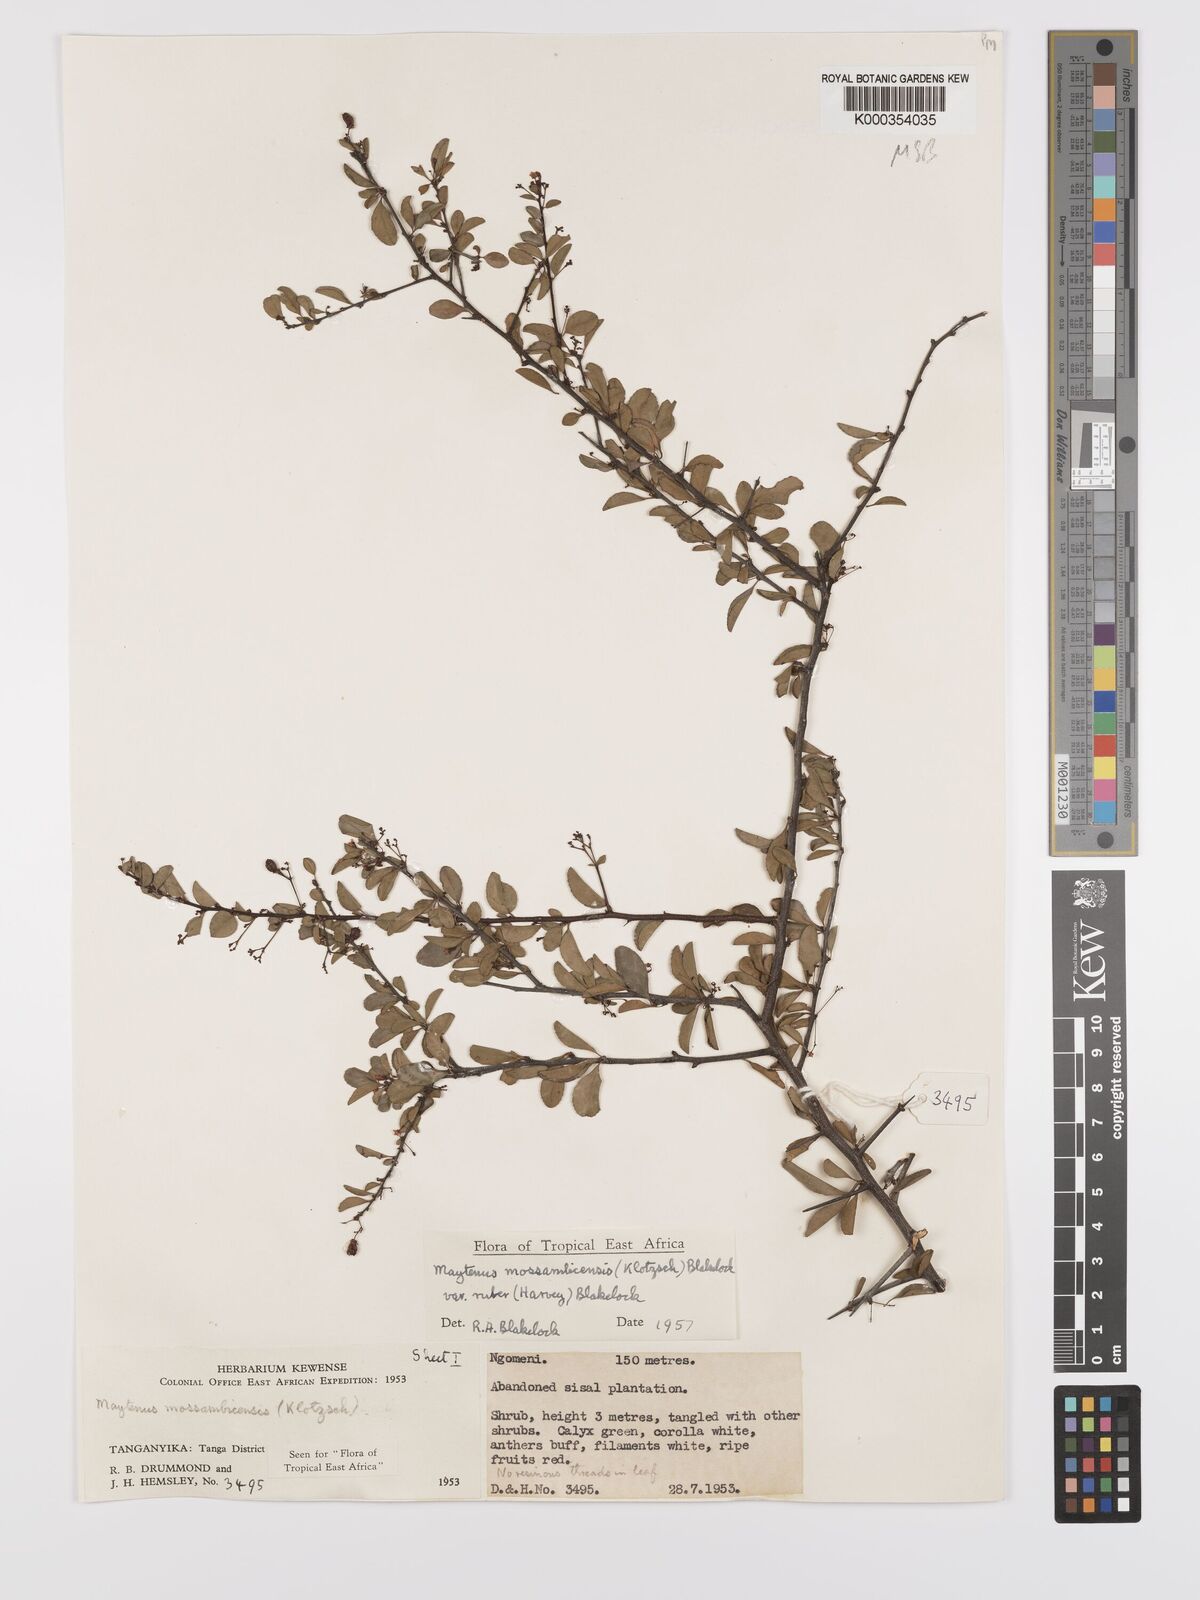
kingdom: Plantae
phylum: Tracheophyta
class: Magnoliopsida
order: Celastrales
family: Celastraceae
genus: Gymnosporia
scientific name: Gymnosporia mossambicensis
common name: Black forest spike-thorn
